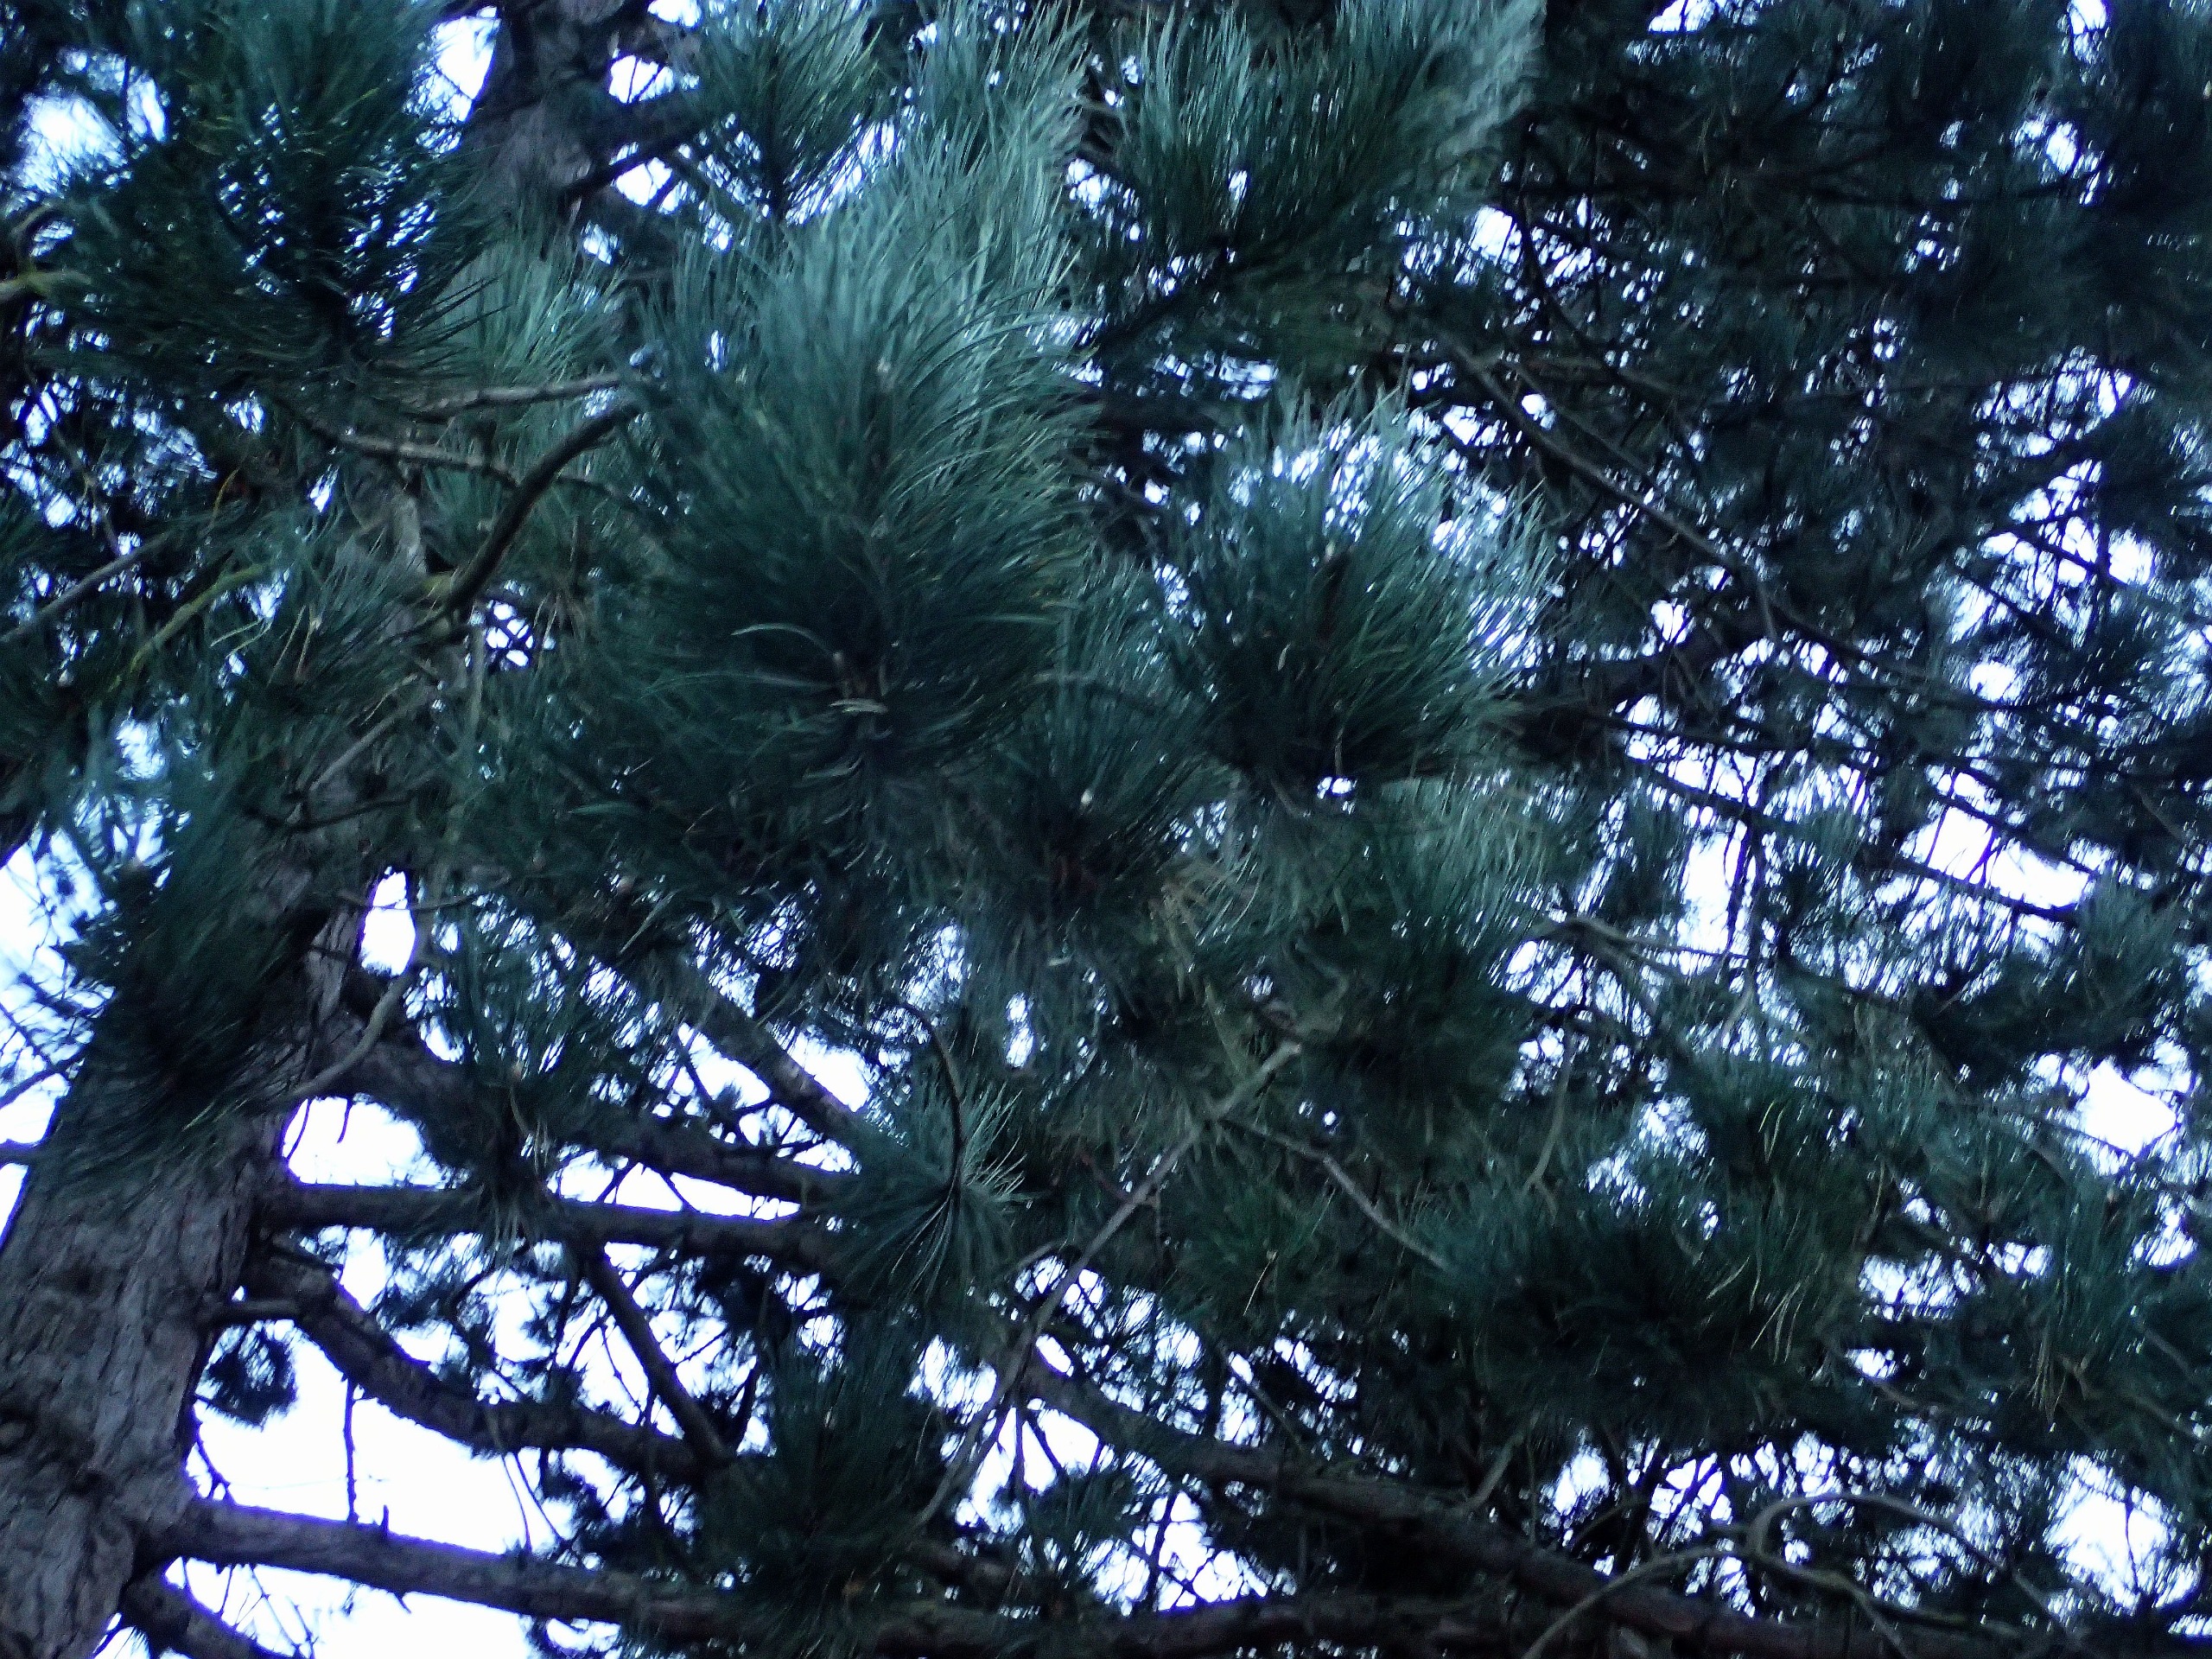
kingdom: Plantae
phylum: Tracheophyta
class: Pinopsida
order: Pinales
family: Pinaceae
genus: Pinus
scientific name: Pinus nigra
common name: Østrigsk fyr
